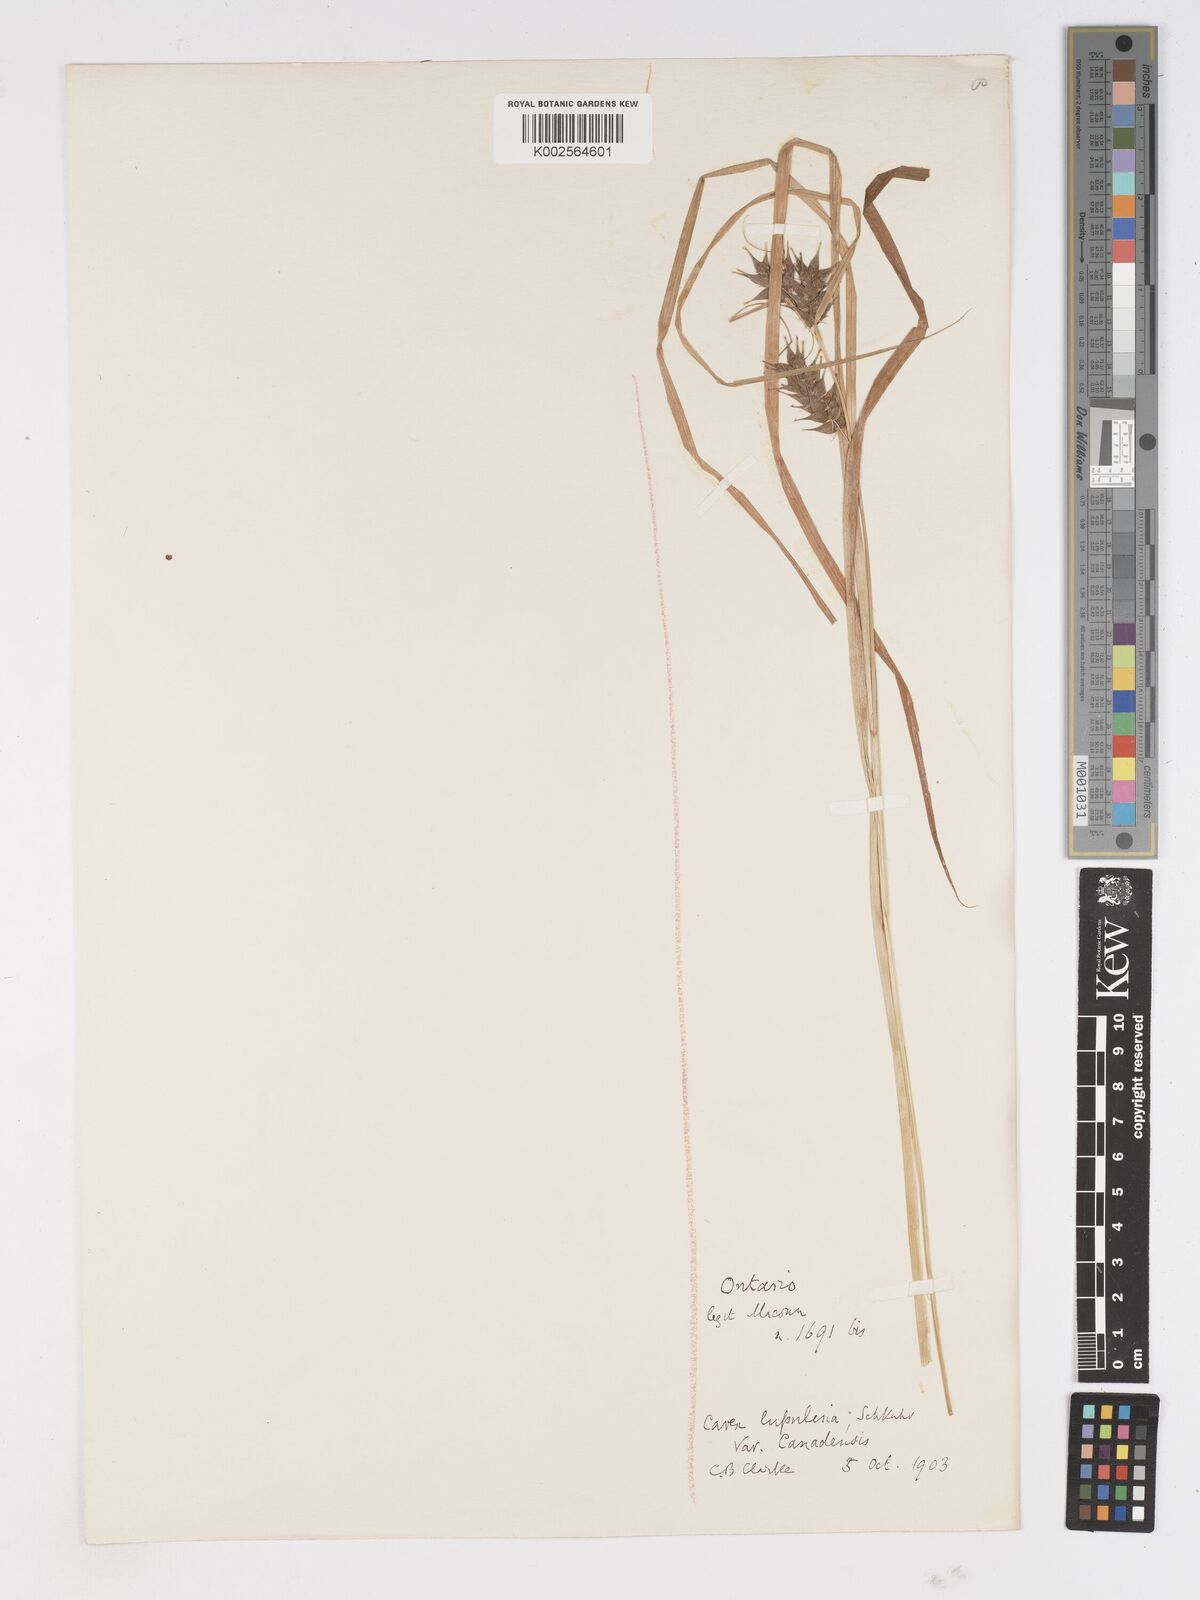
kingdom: Plantae
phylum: Tracheophyta
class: Liliopsida
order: Poales
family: Cyperaceae
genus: Carex
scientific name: Carex lupulina
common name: Hop sedge
